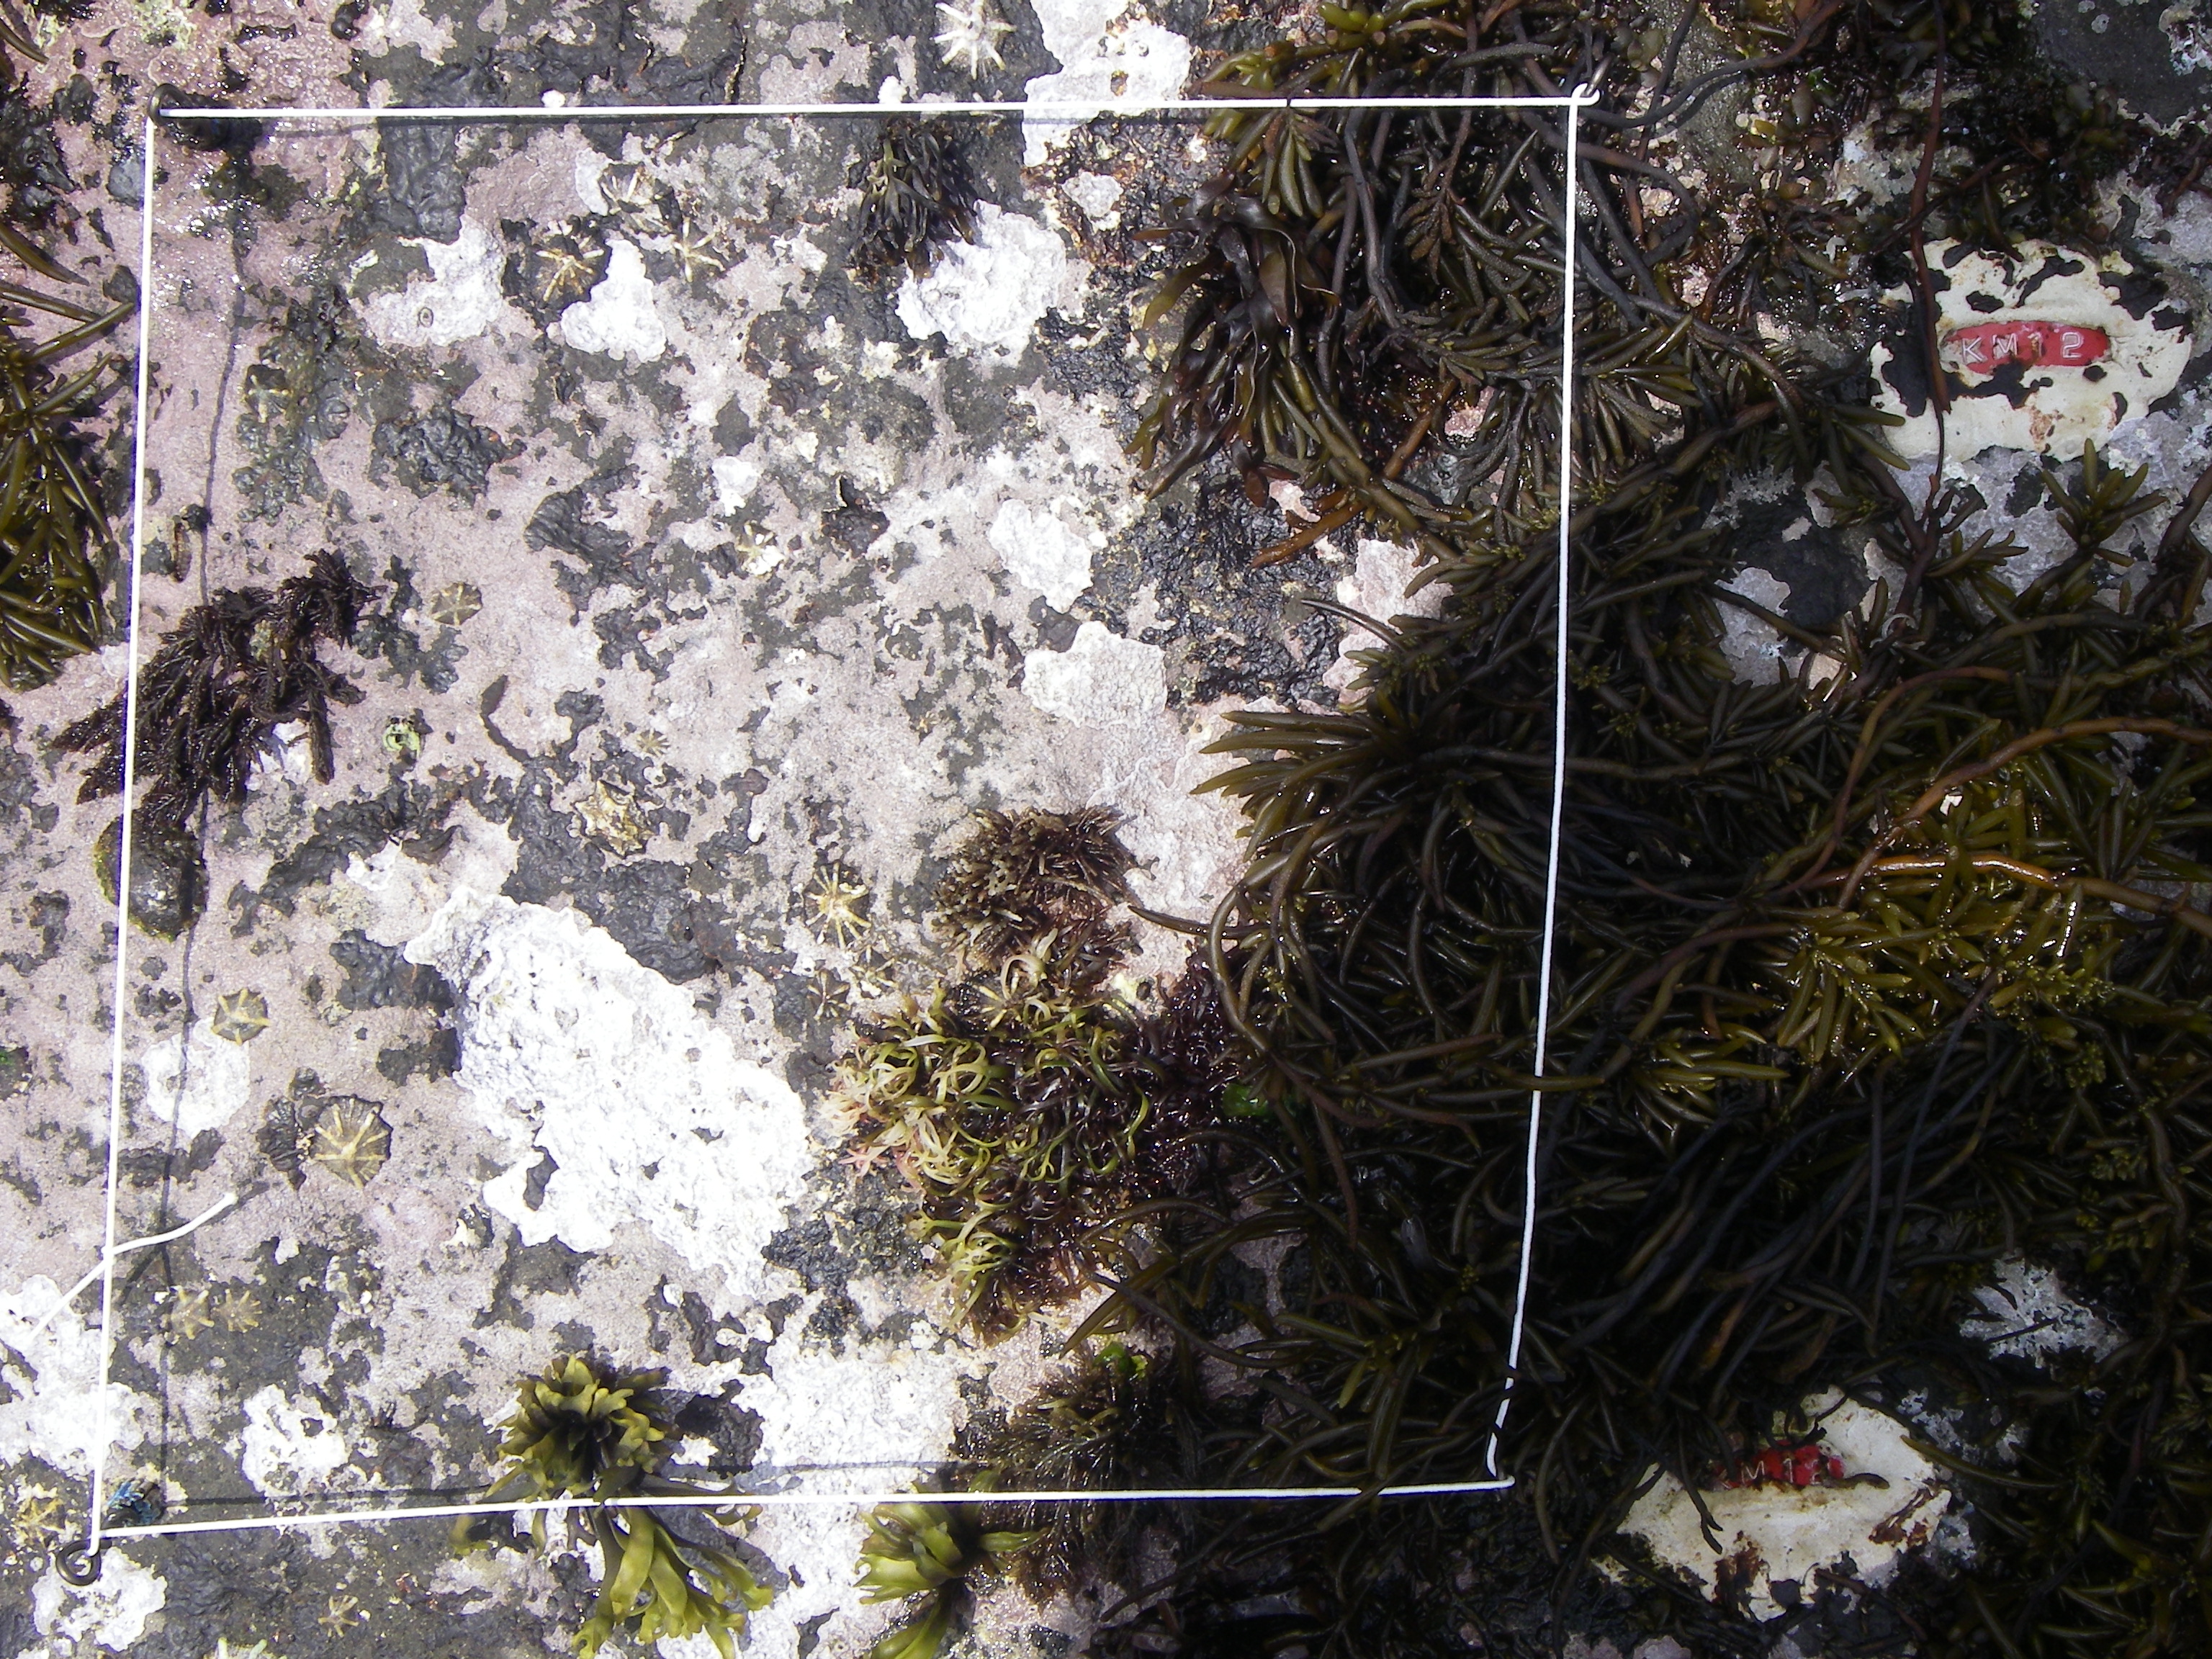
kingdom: Chromista
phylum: Ochrophyta
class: Phaeophyceae
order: Fucales
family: Sargassaceae
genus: Sargassum
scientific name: Sargassum fusiforme
